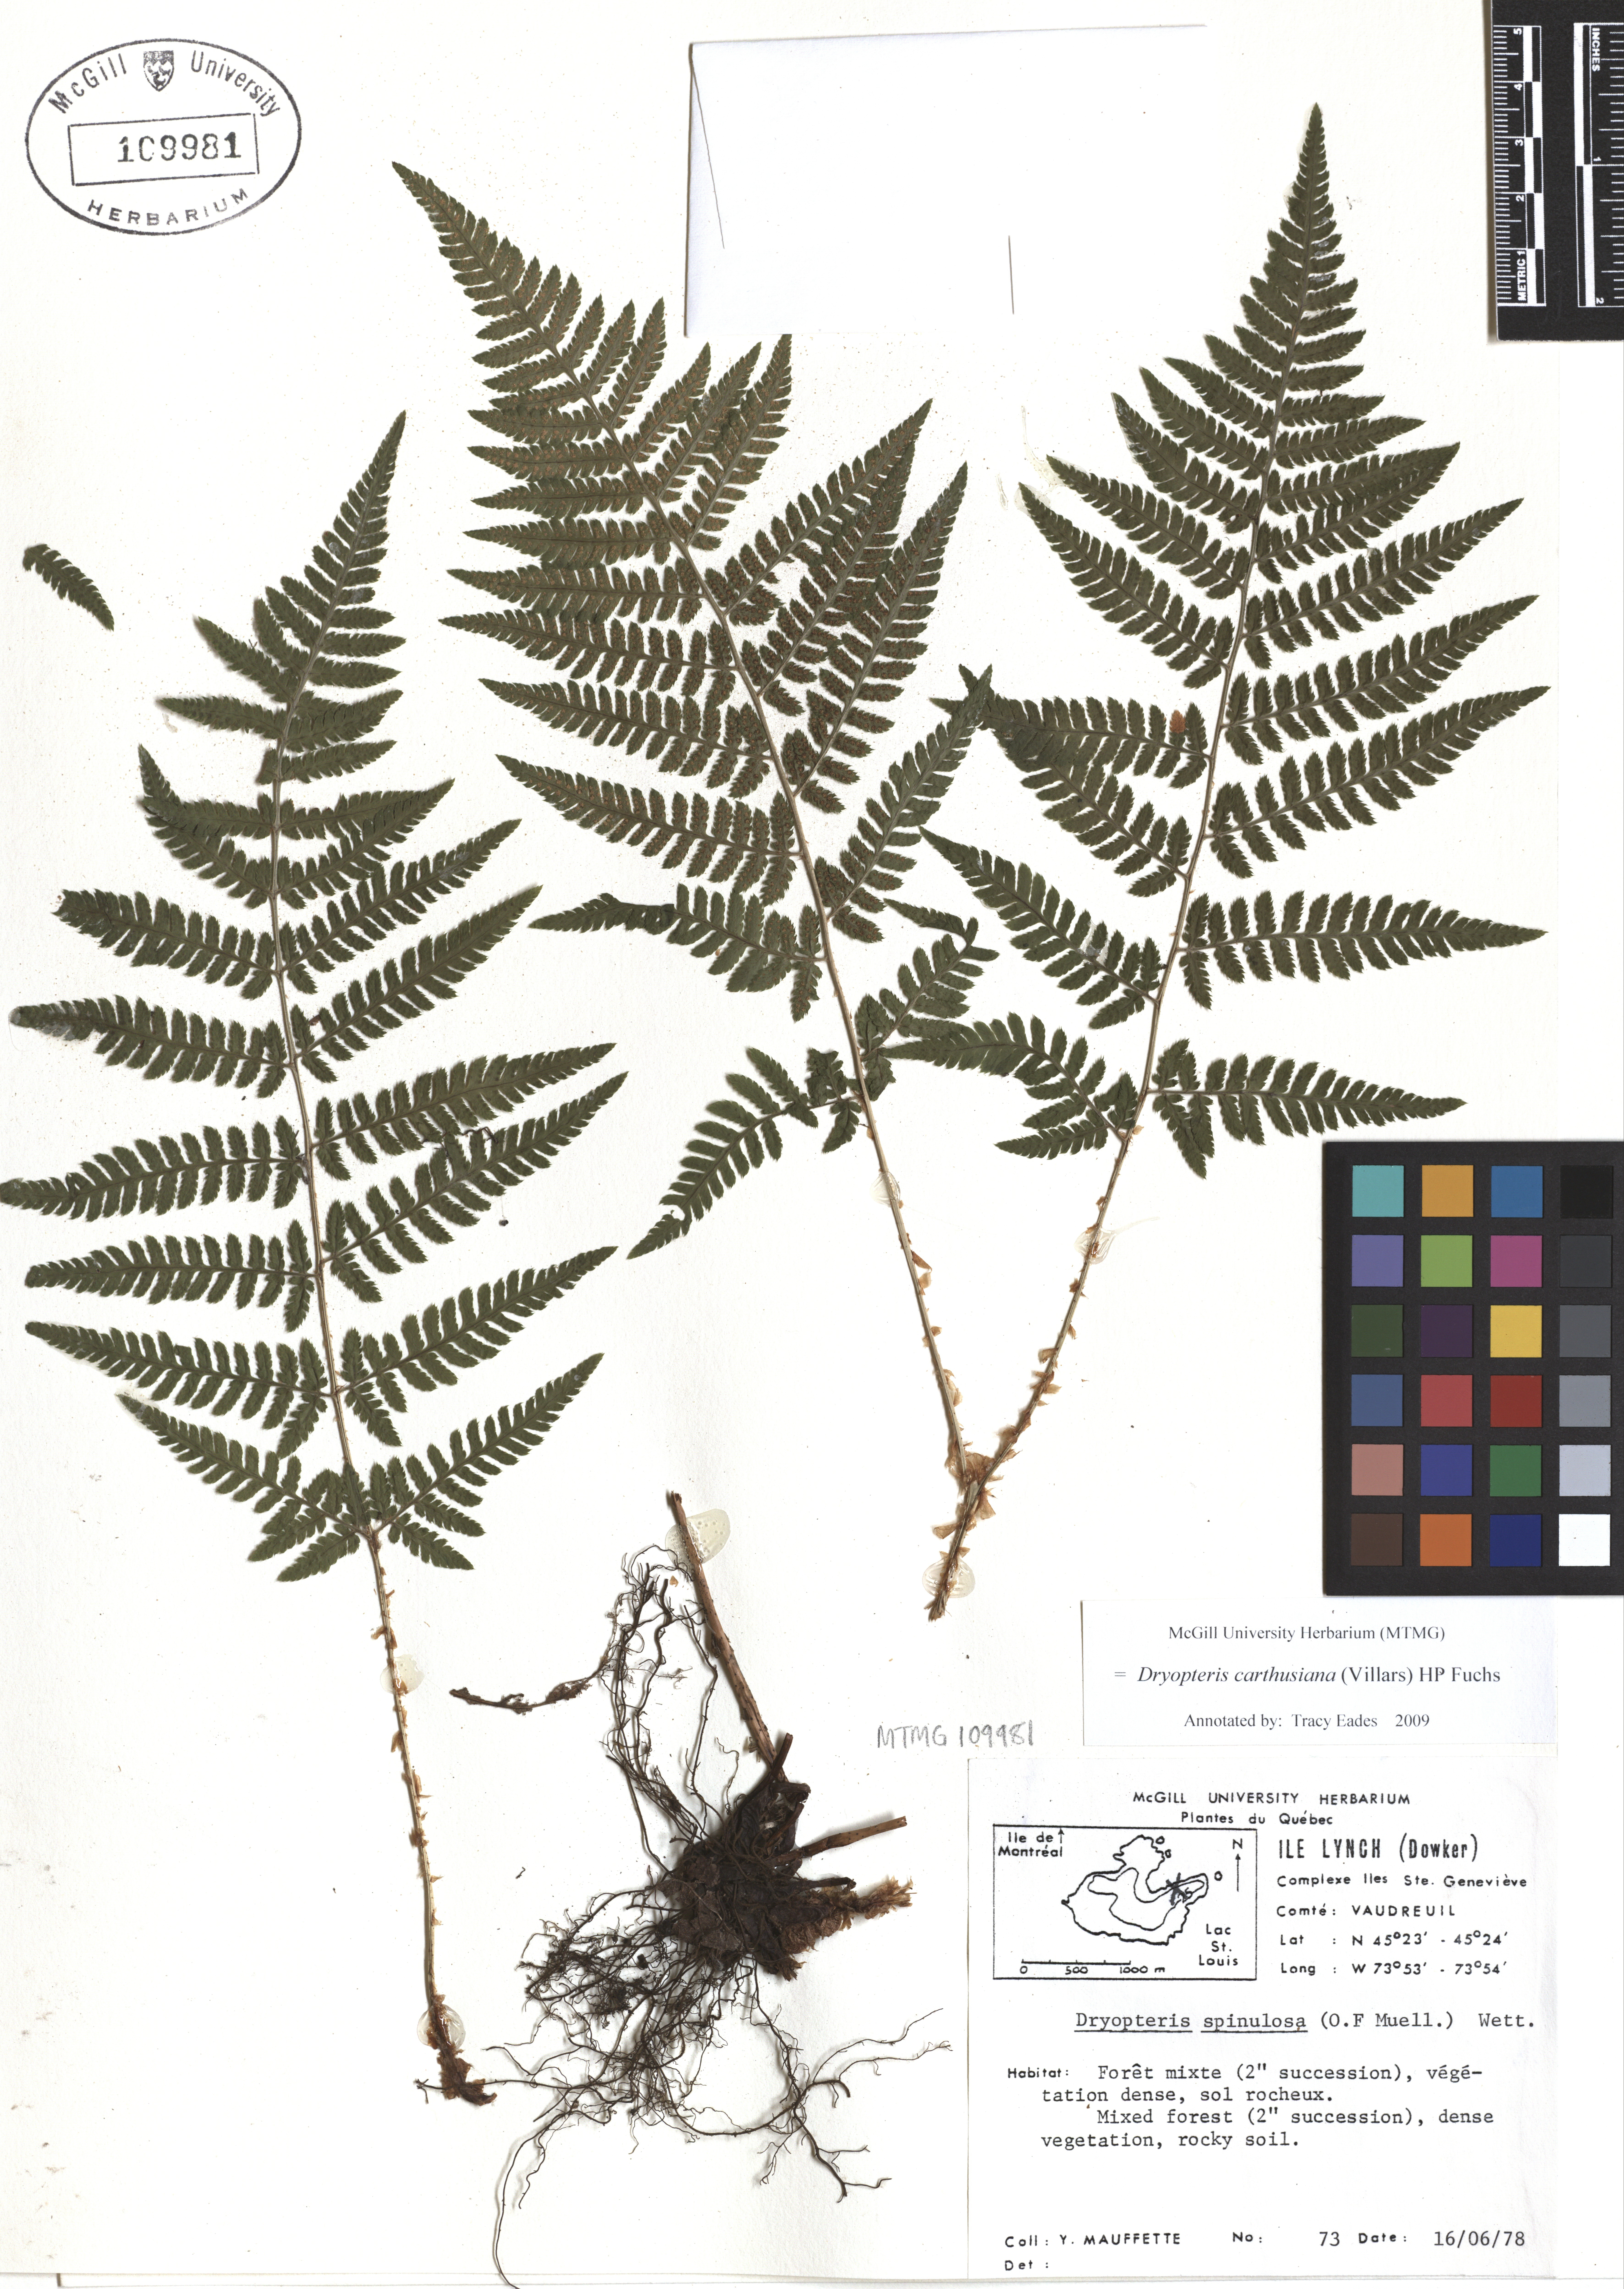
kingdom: Plantae
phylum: Tracheophyta
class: Polypodiopsida
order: Polypodiales
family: Dryopteridaceae
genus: Dryopteris
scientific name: Dryopteris carthusiana
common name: Narrow buckler-fern
